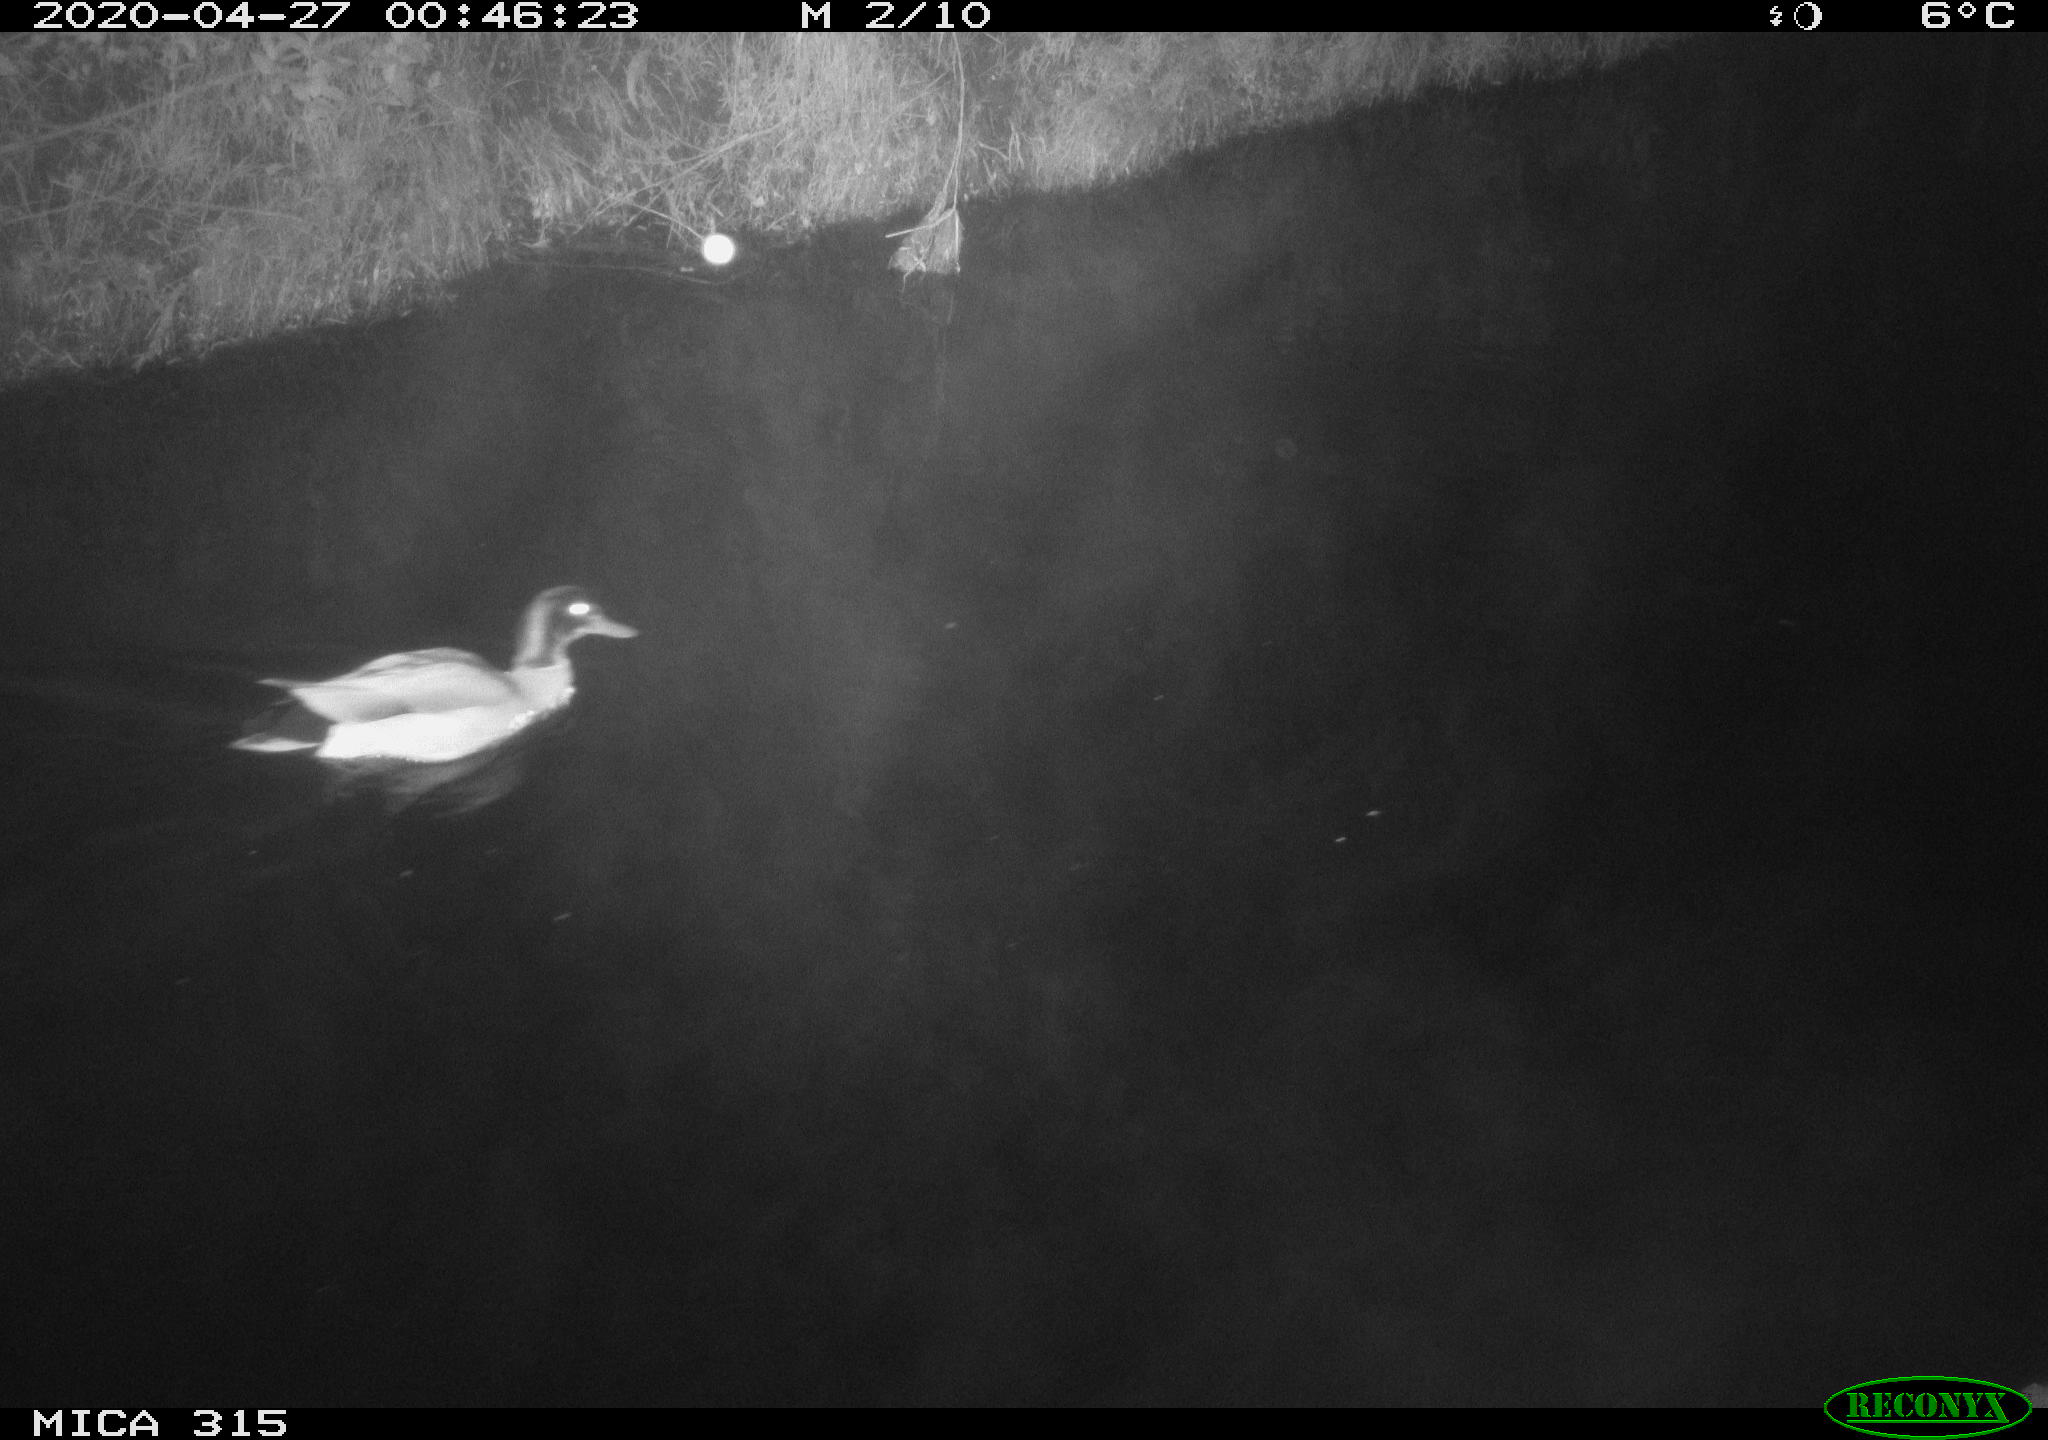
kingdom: Animalia
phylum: Chordata
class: Aves
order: Anseriformes
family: Anatidae
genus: Anas
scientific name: Anas platyrhynchos
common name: Mallard
